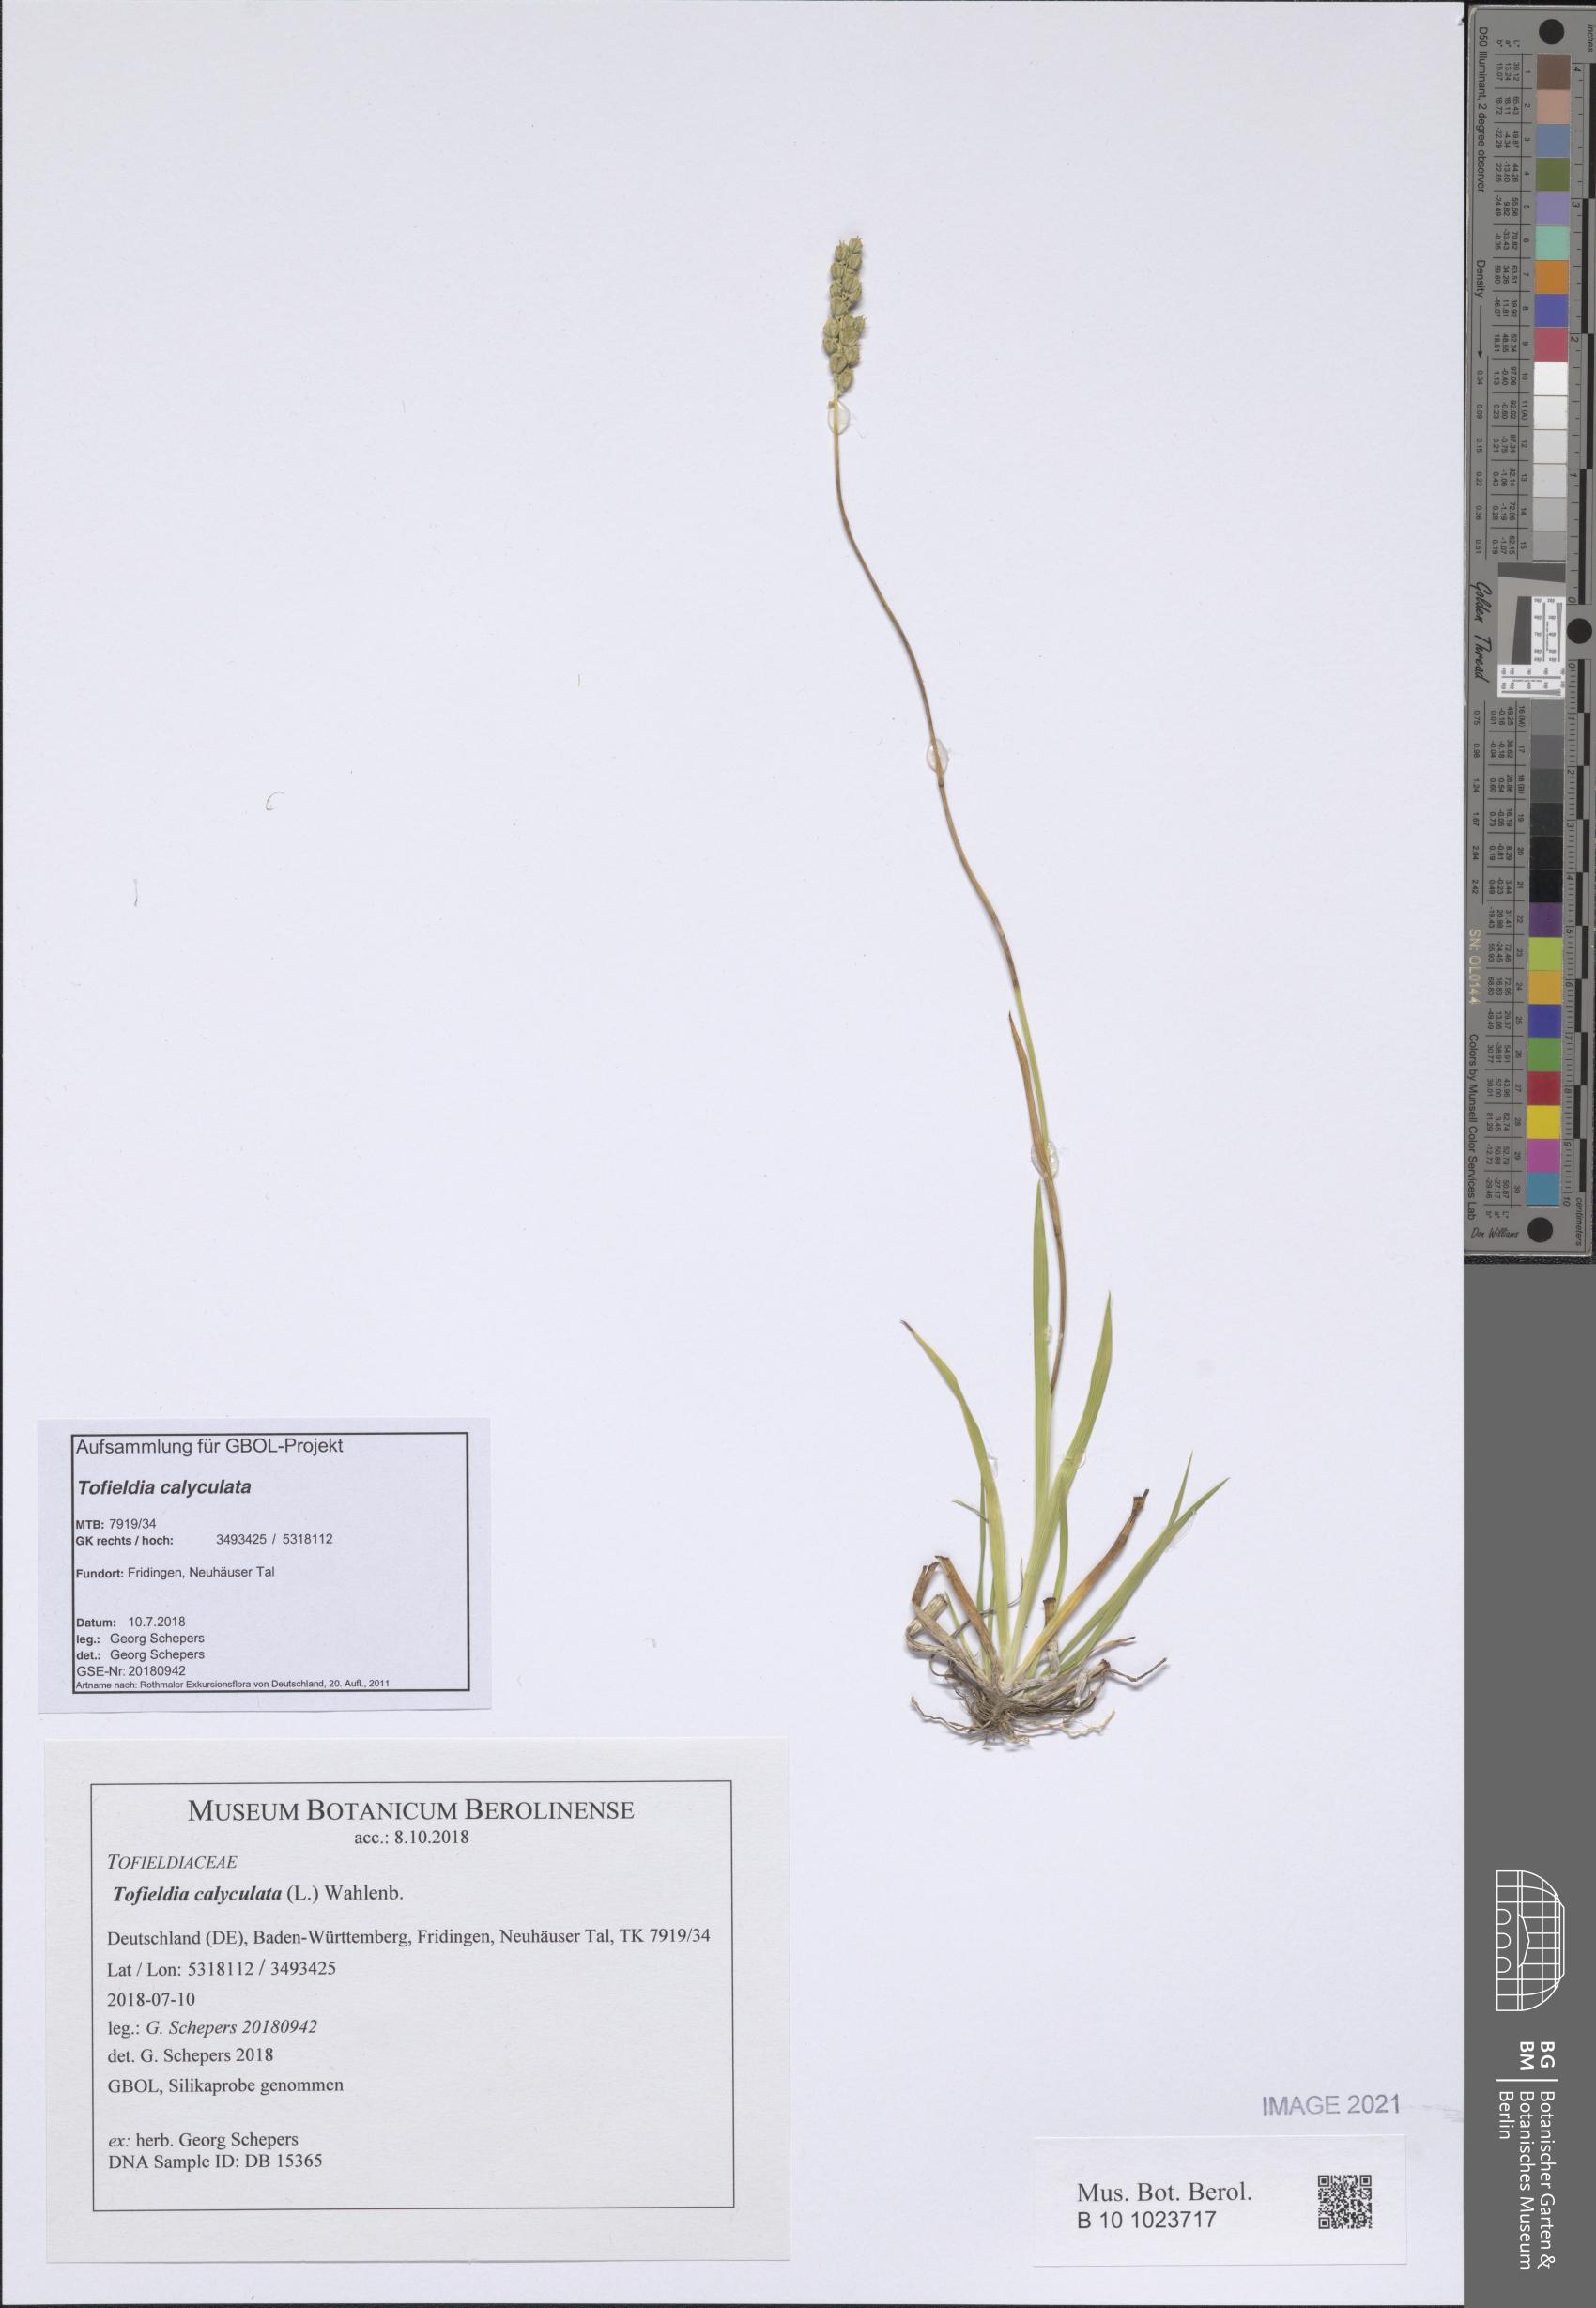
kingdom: Plantae
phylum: Tracheophyta
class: Liliopsida
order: Alismatales
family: Tofieldiaceae
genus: Tofieldia
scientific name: Tofieldia calyculata
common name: German-asphodel
